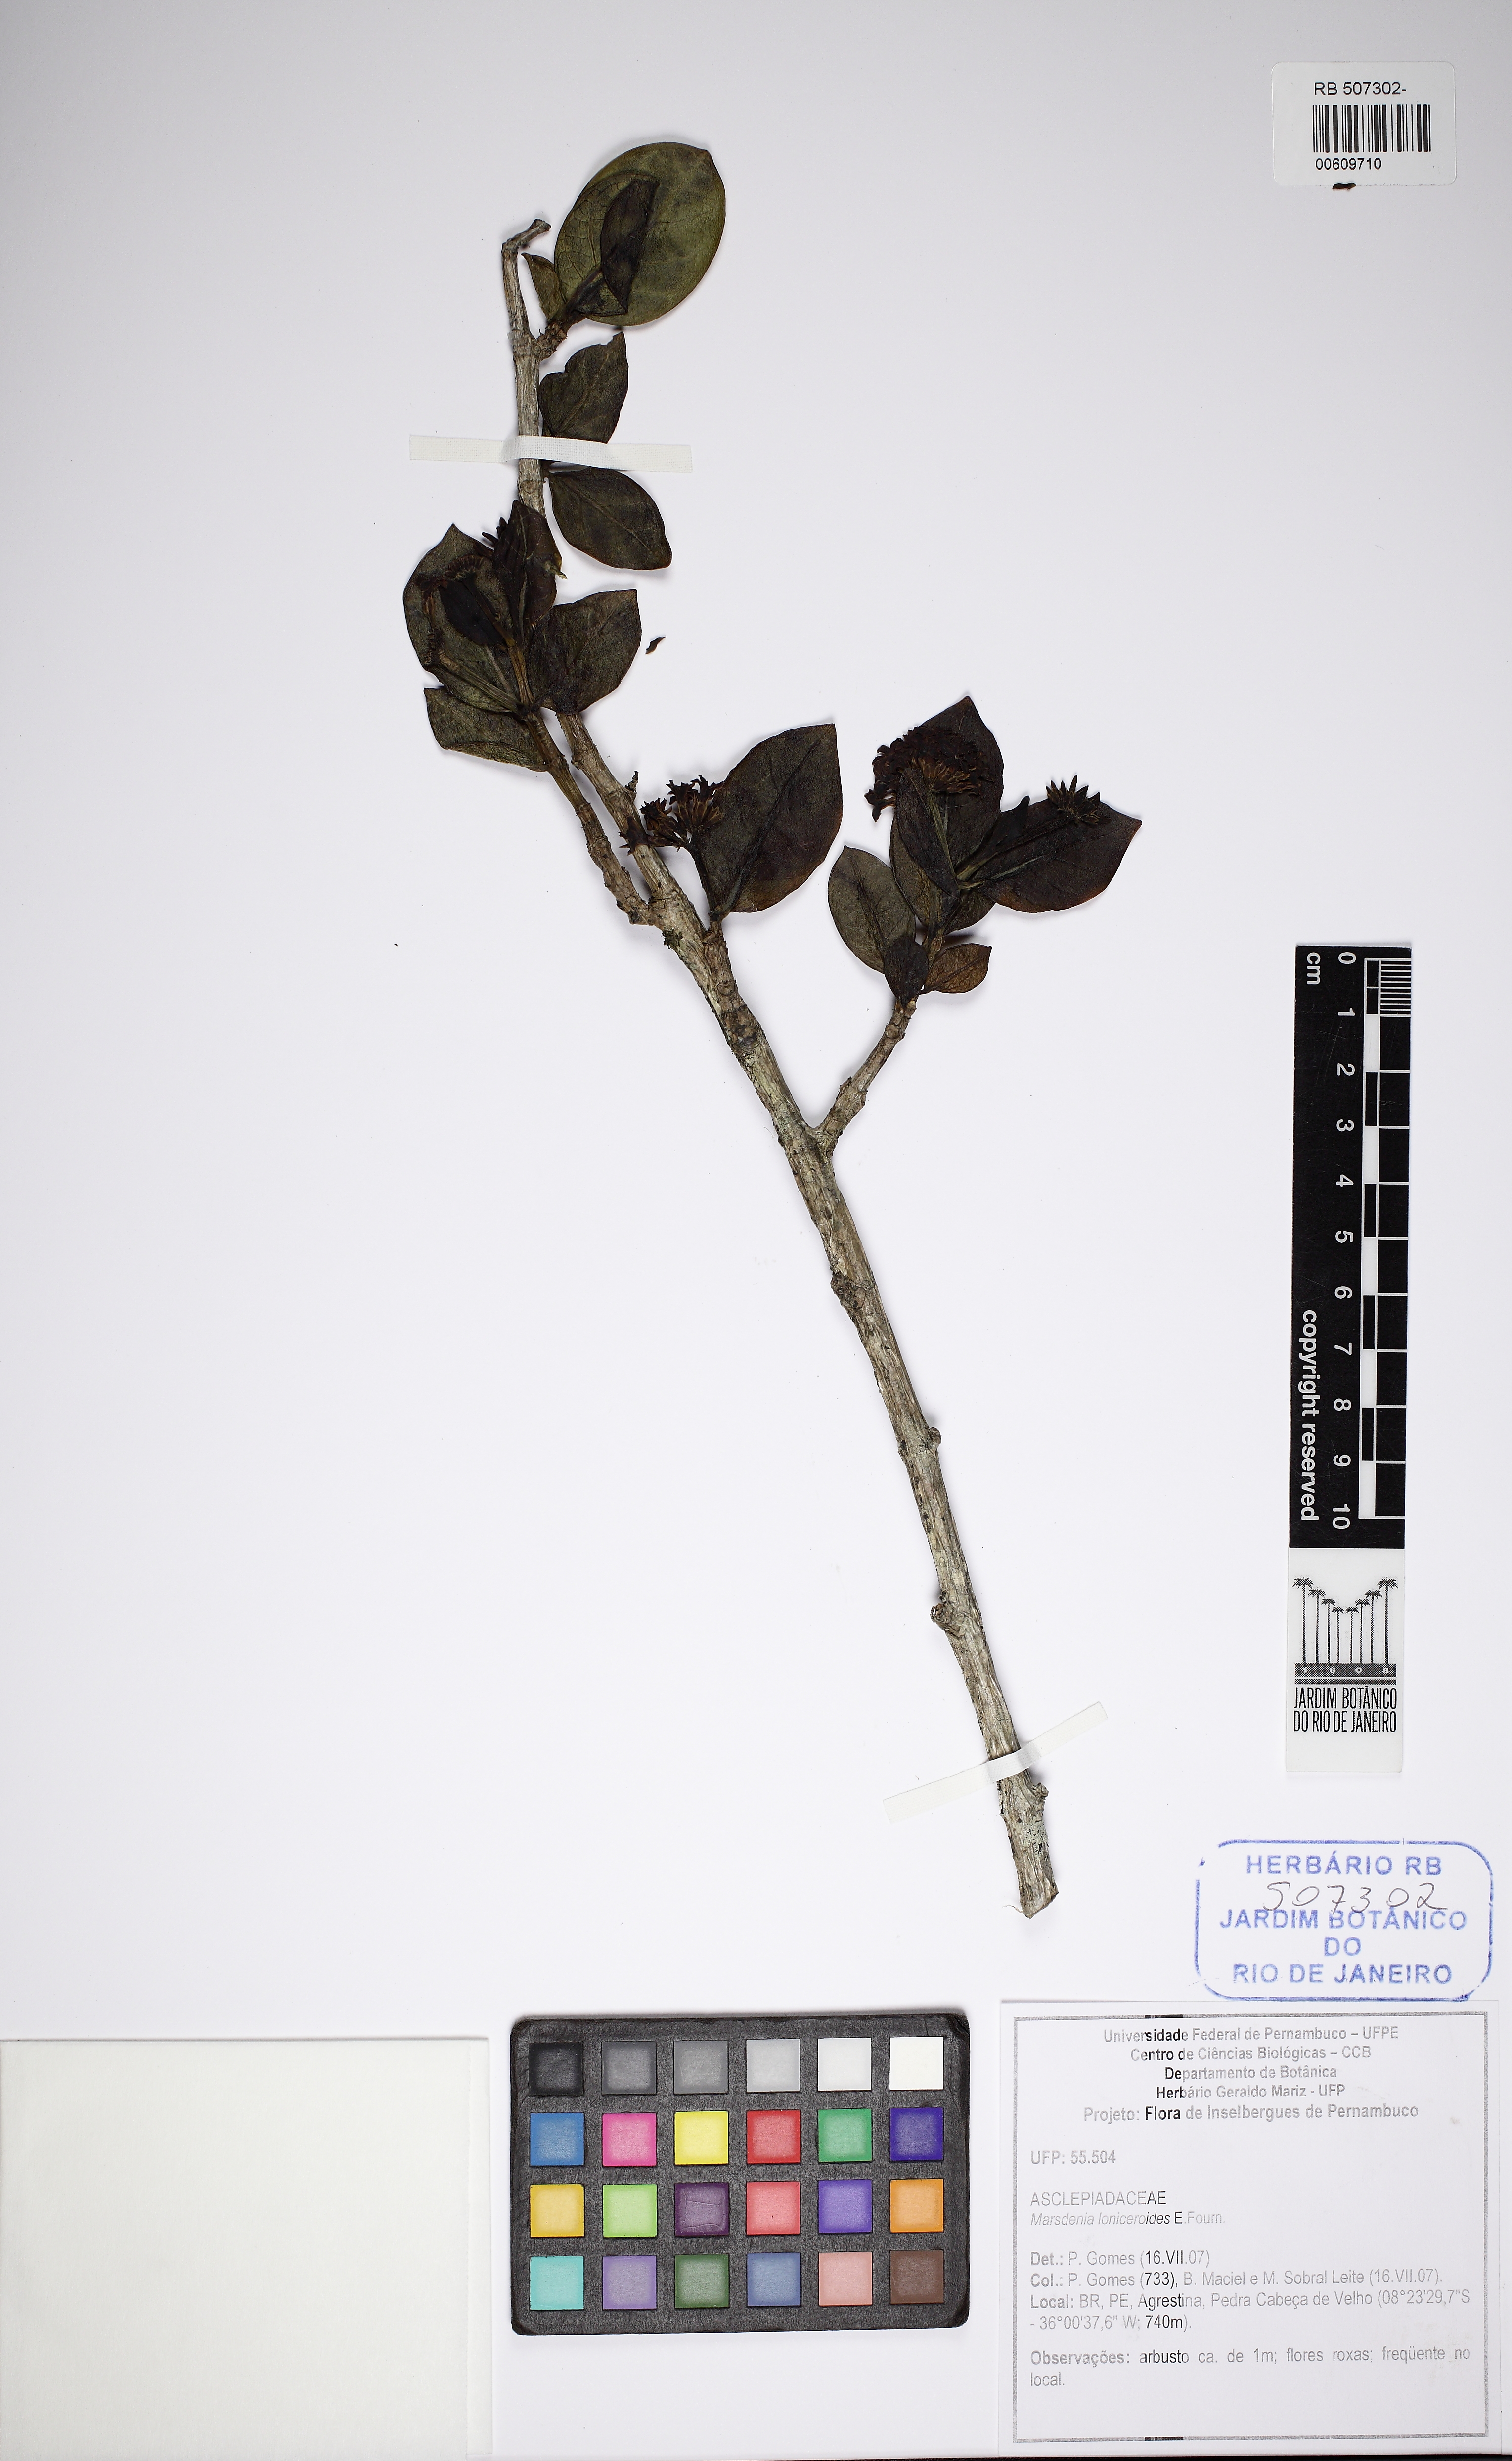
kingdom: Plantae
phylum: Tracheophyta
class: Magnoliopsida
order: Gentianales
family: Apocynaceae
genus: Ruehssia
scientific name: Ruehssia loniceroides
